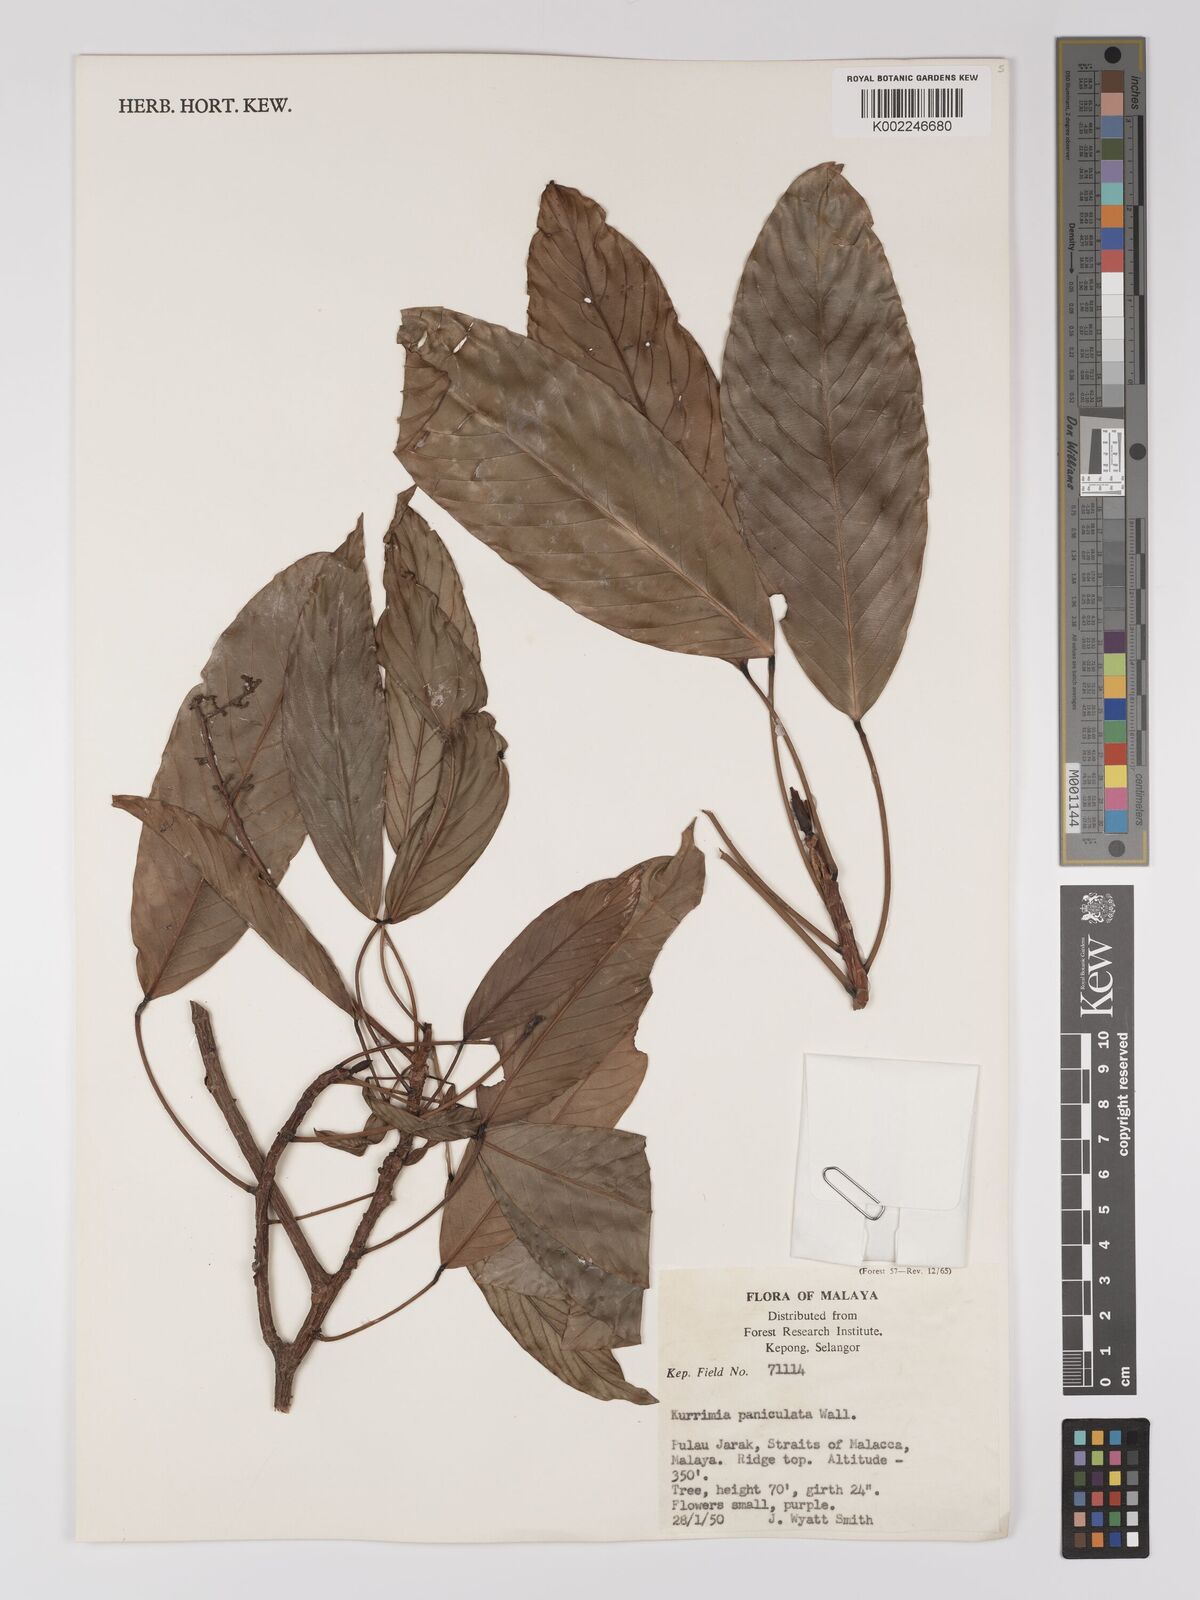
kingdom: Plantae
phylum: Tracheophyta
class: Magnoliopsida
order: Malpighiales
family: Centroplacaceae
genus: Bhesa
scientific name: Bhesa paniculata
